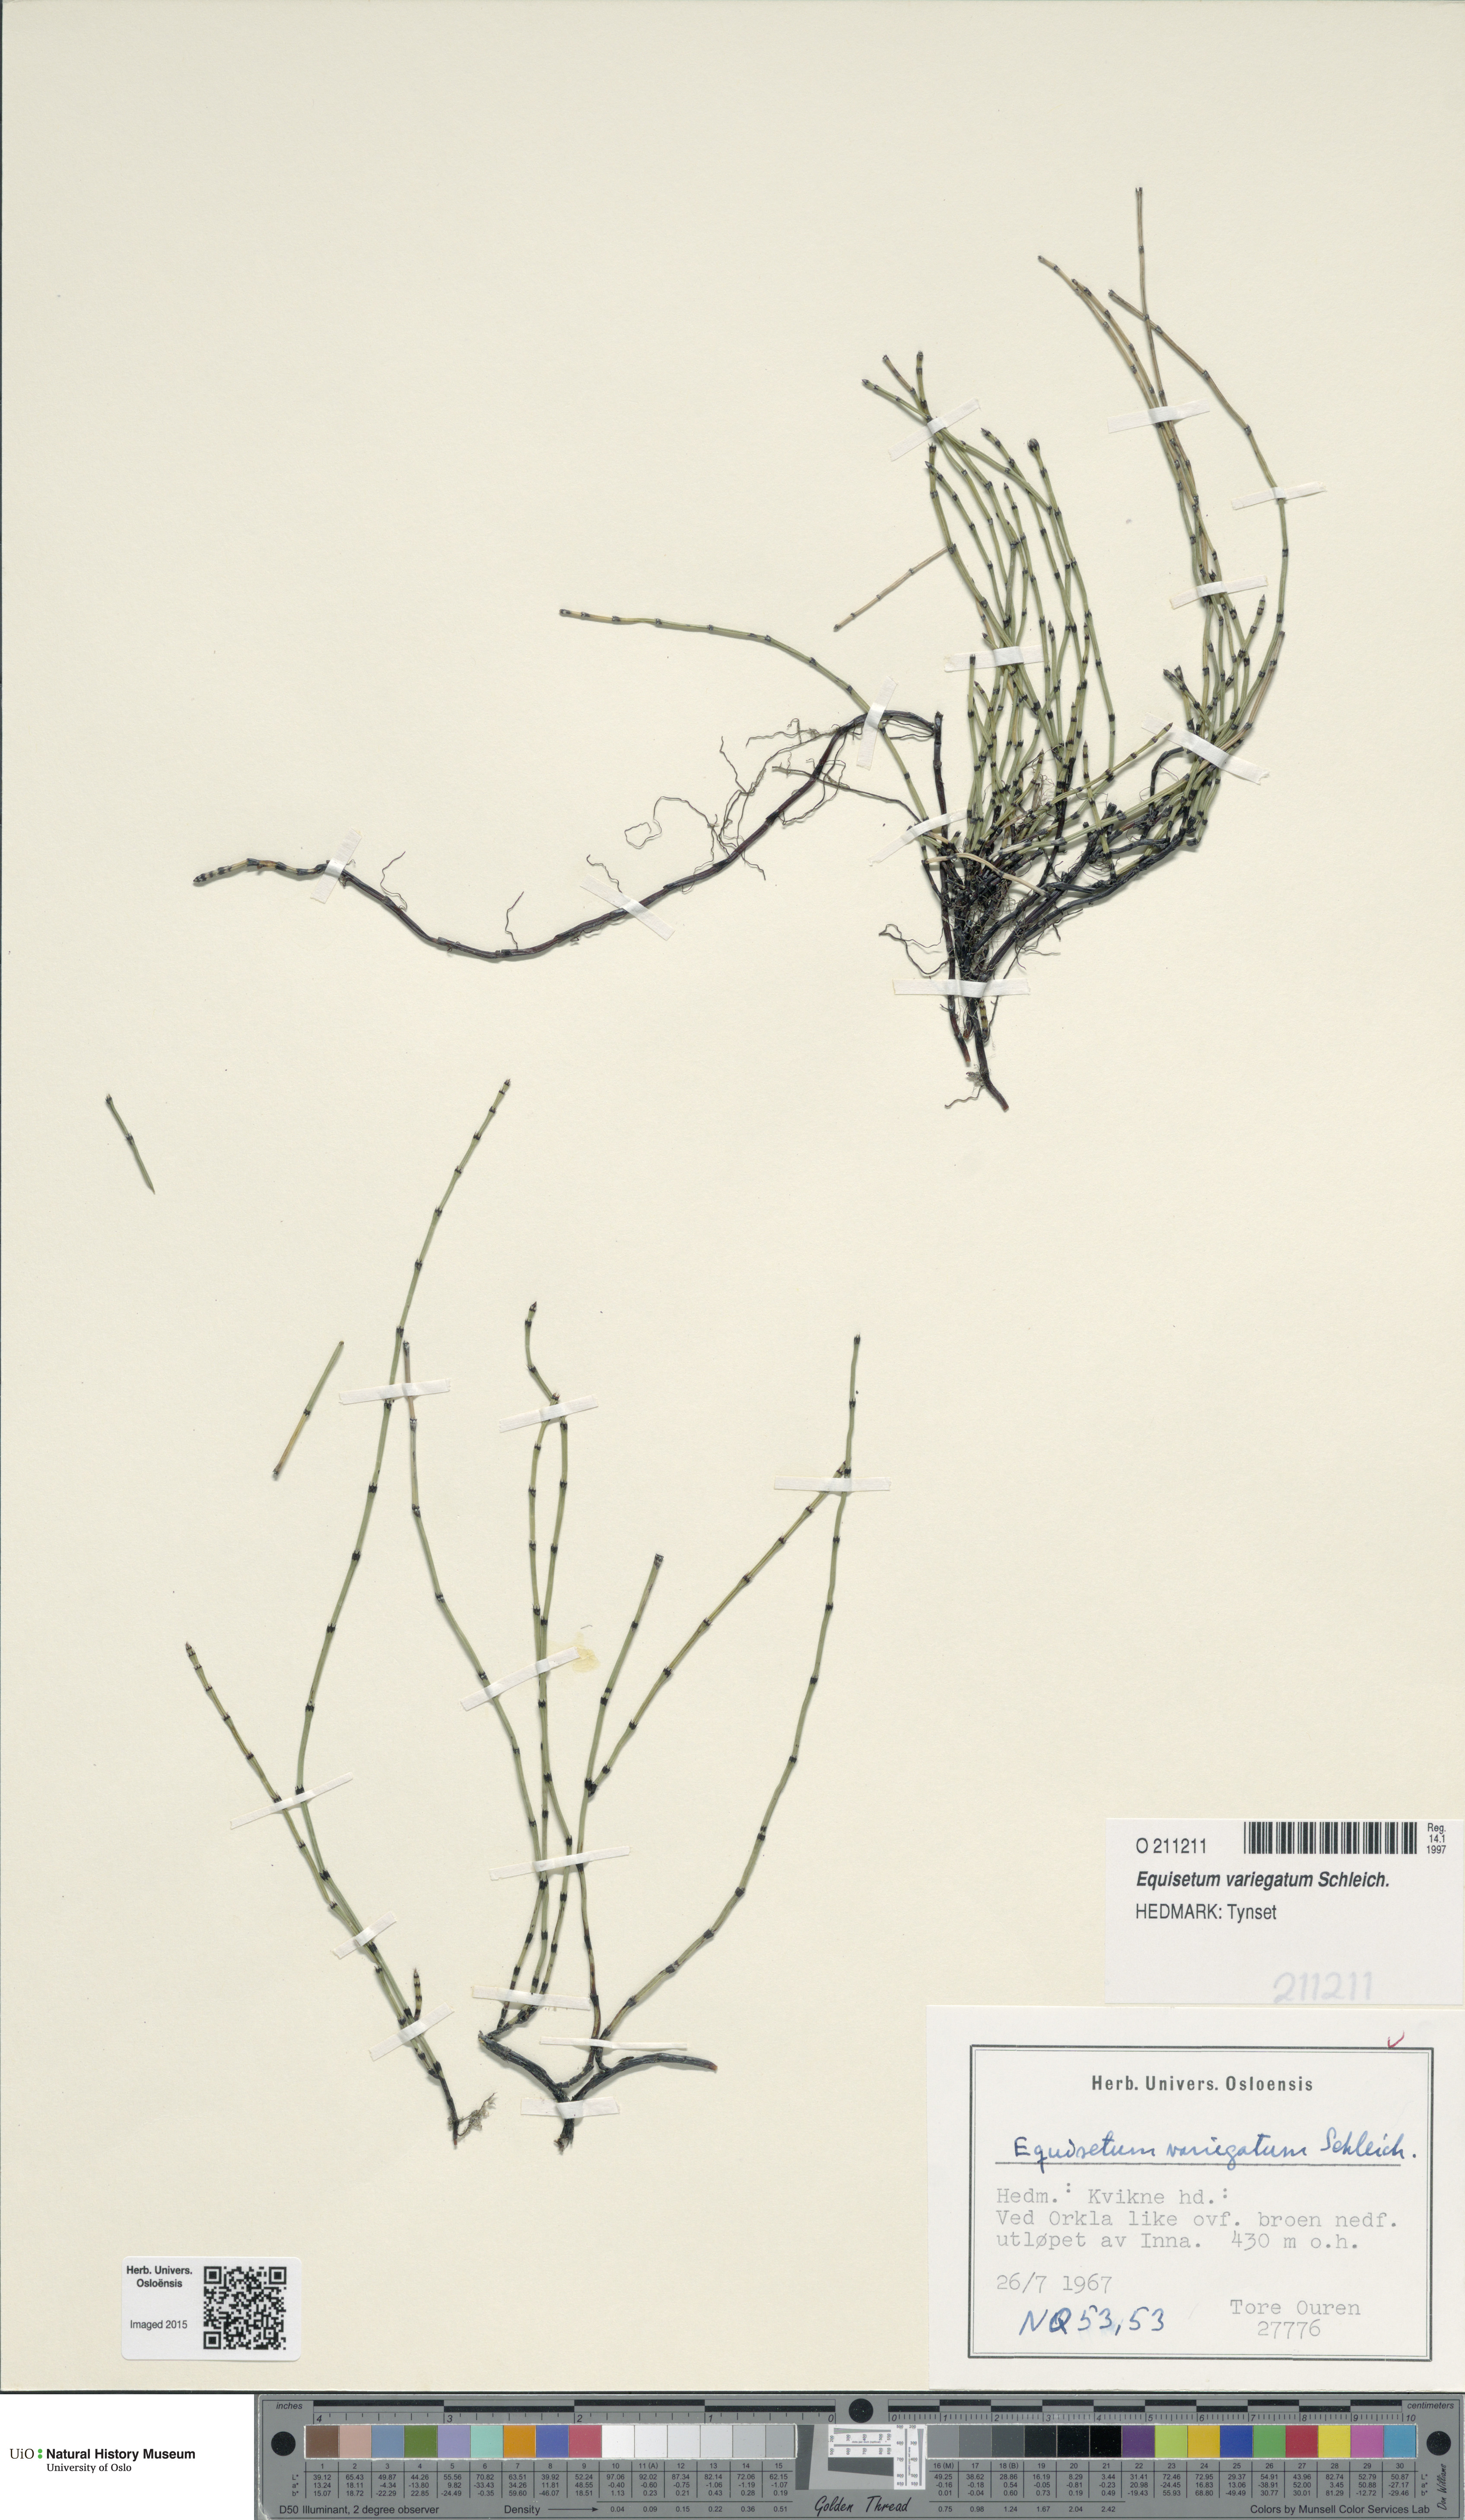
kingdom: Plantae
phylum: Tracheophyta
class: Polypodiopsida
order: Equisetales
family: Equisetaceae
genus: Equisetum
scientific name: Equisetum variegatum
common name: Variegated horsetail
